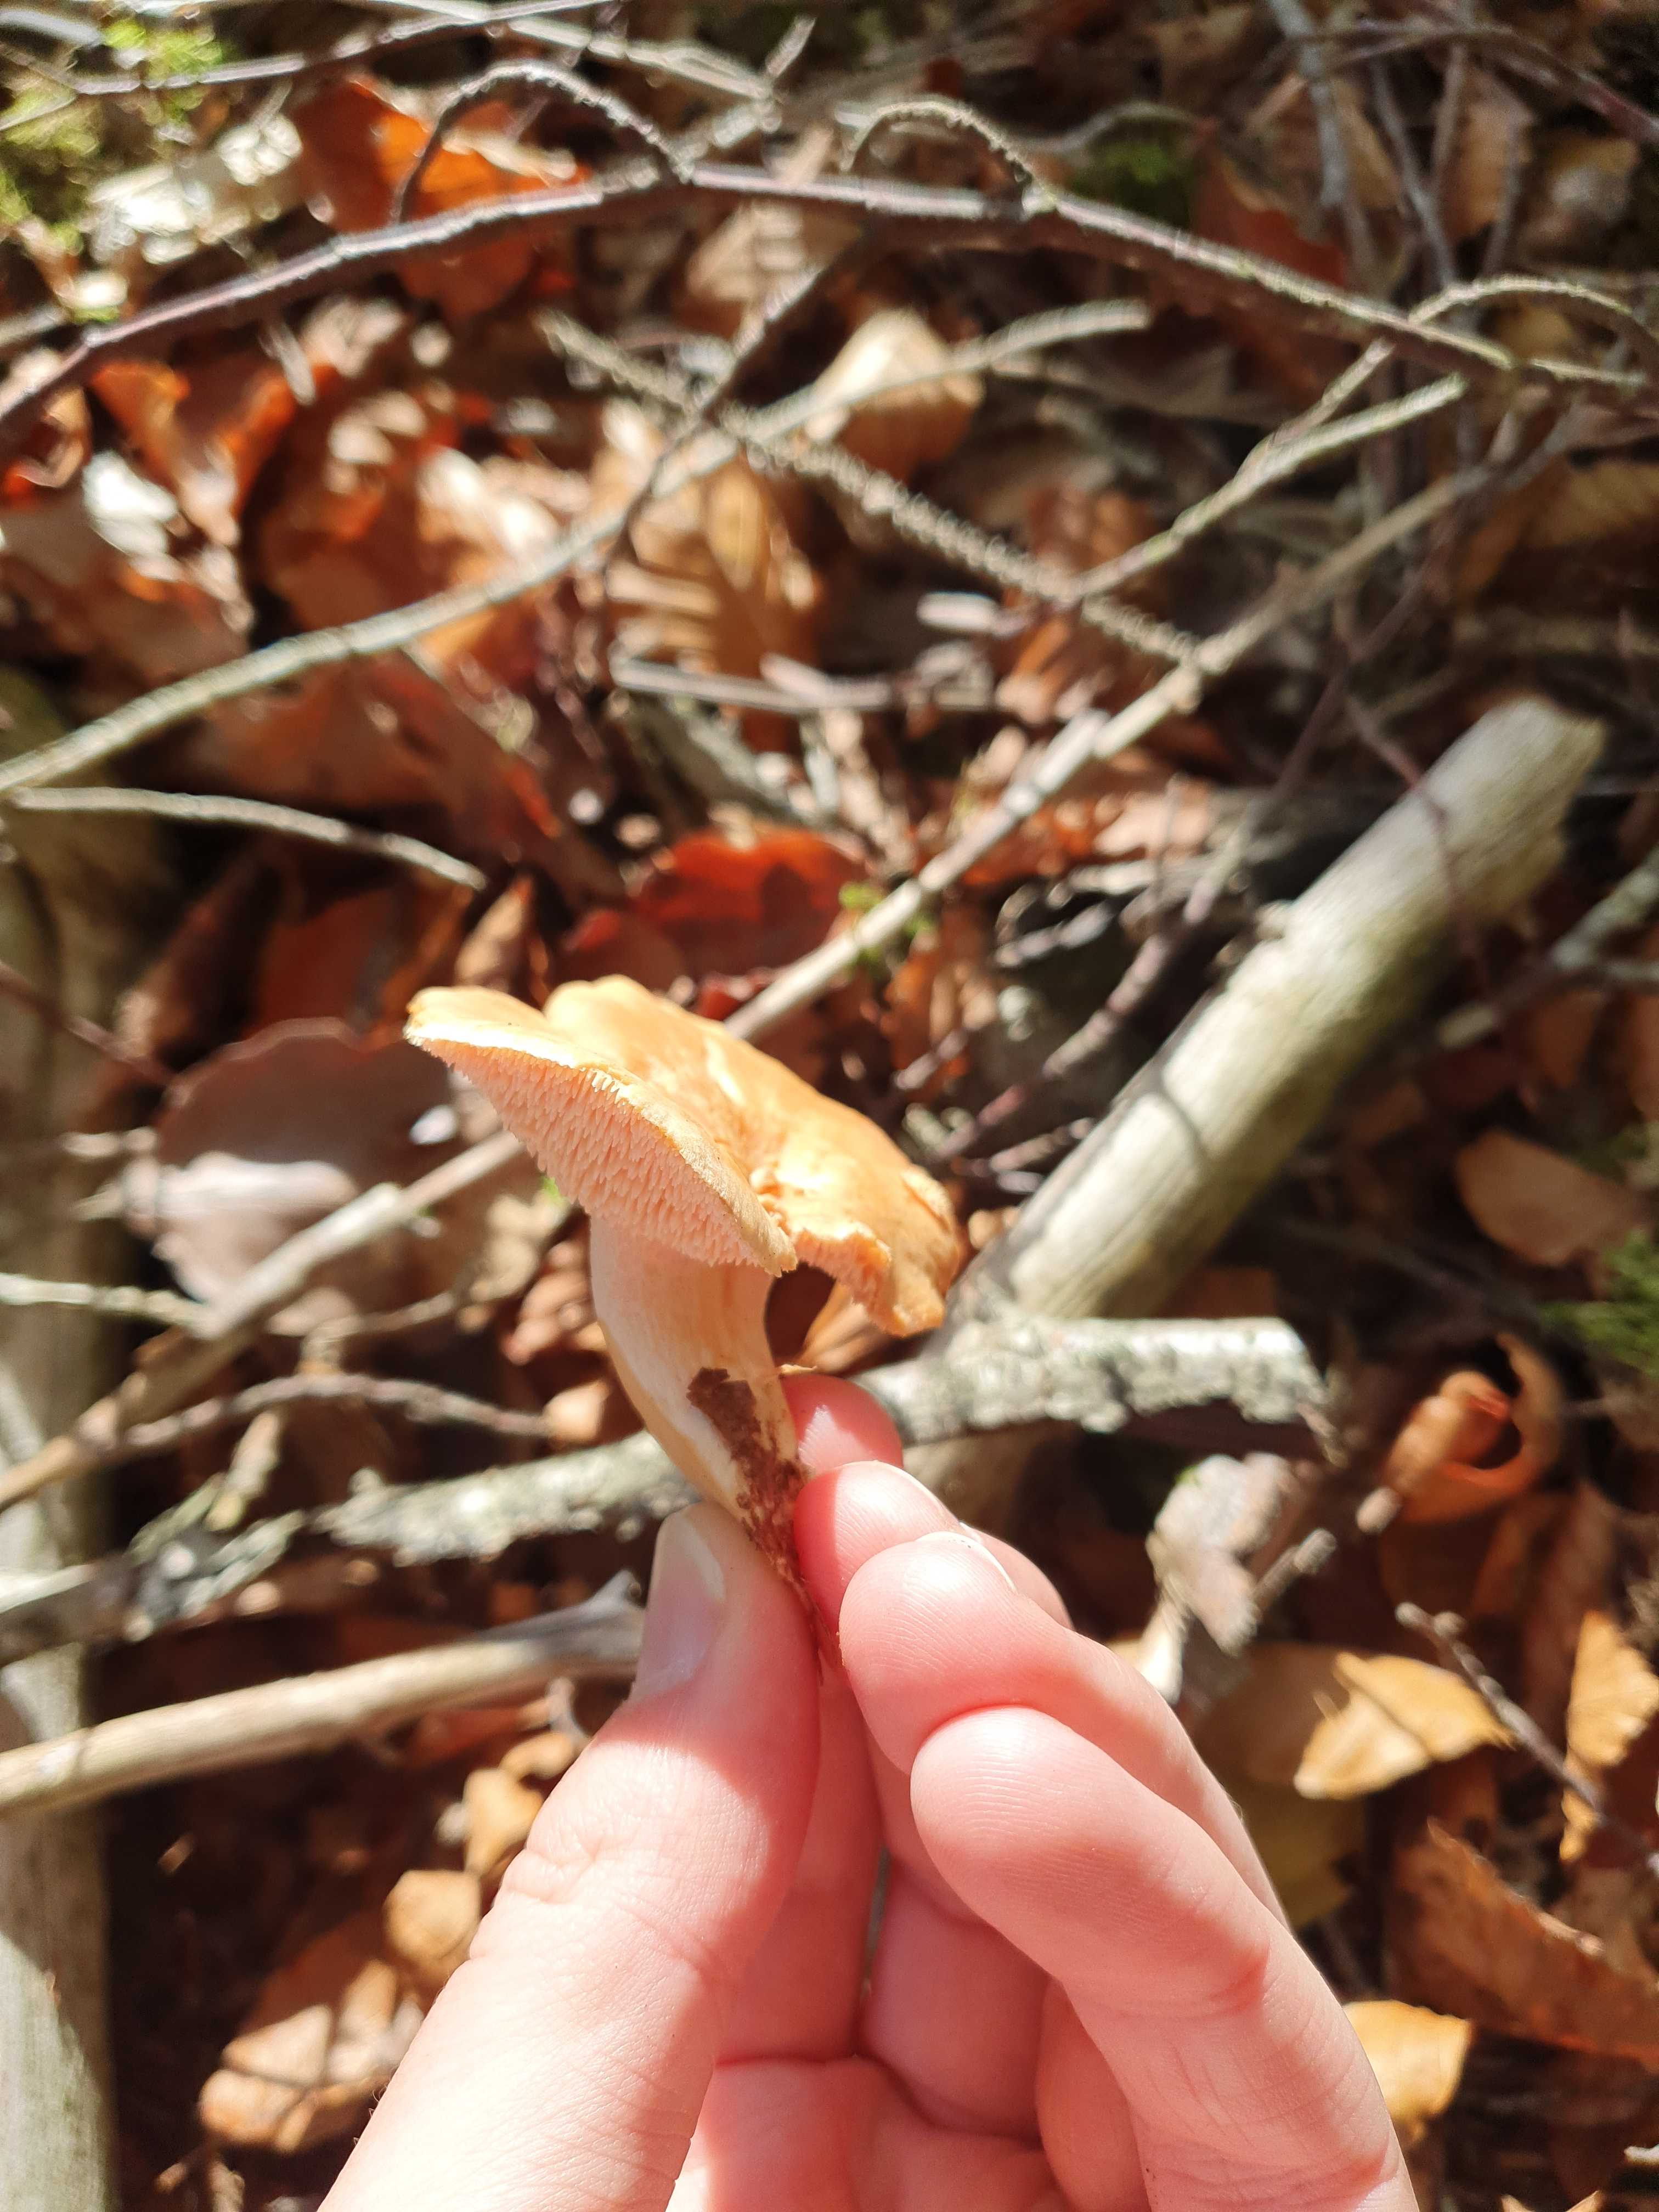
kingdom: Fungi
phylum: Basidiomycota
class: Agaricomycetes
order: Cantharellales
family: Hydnaceae
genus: Hydnum
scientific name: Hydnum
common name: pigsvamp
